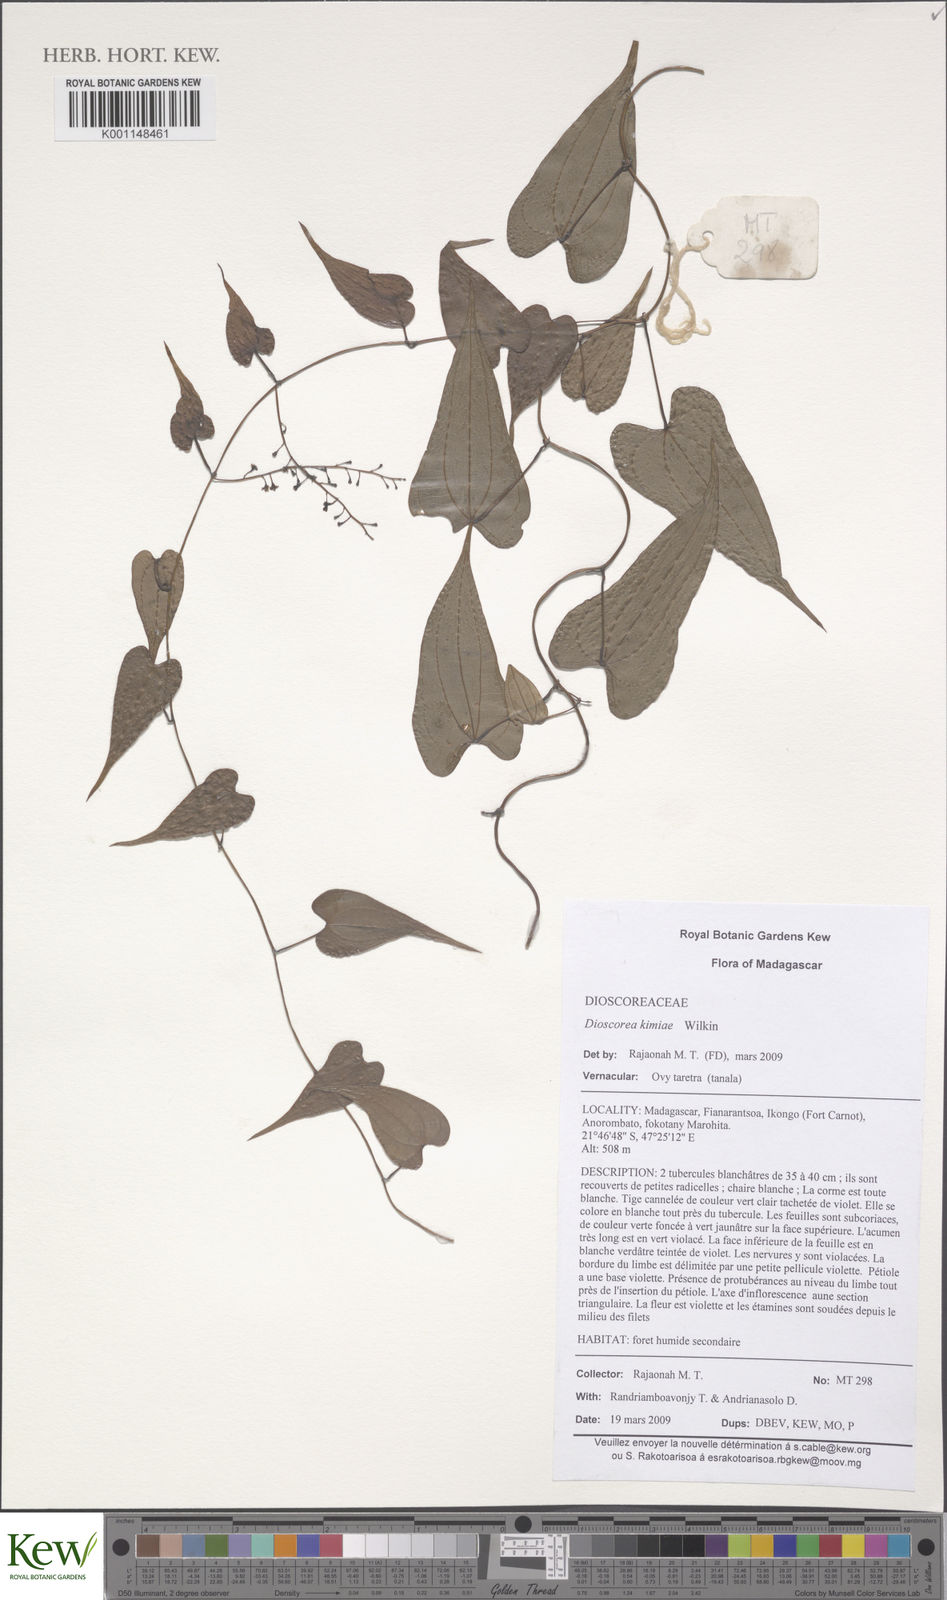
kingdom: Plantae
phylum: Tracheophyta
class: Liliopsida
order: Dioscoreales
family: Dioscoreaceae
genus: Dioscorea
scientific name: Dioscorea kimiae
